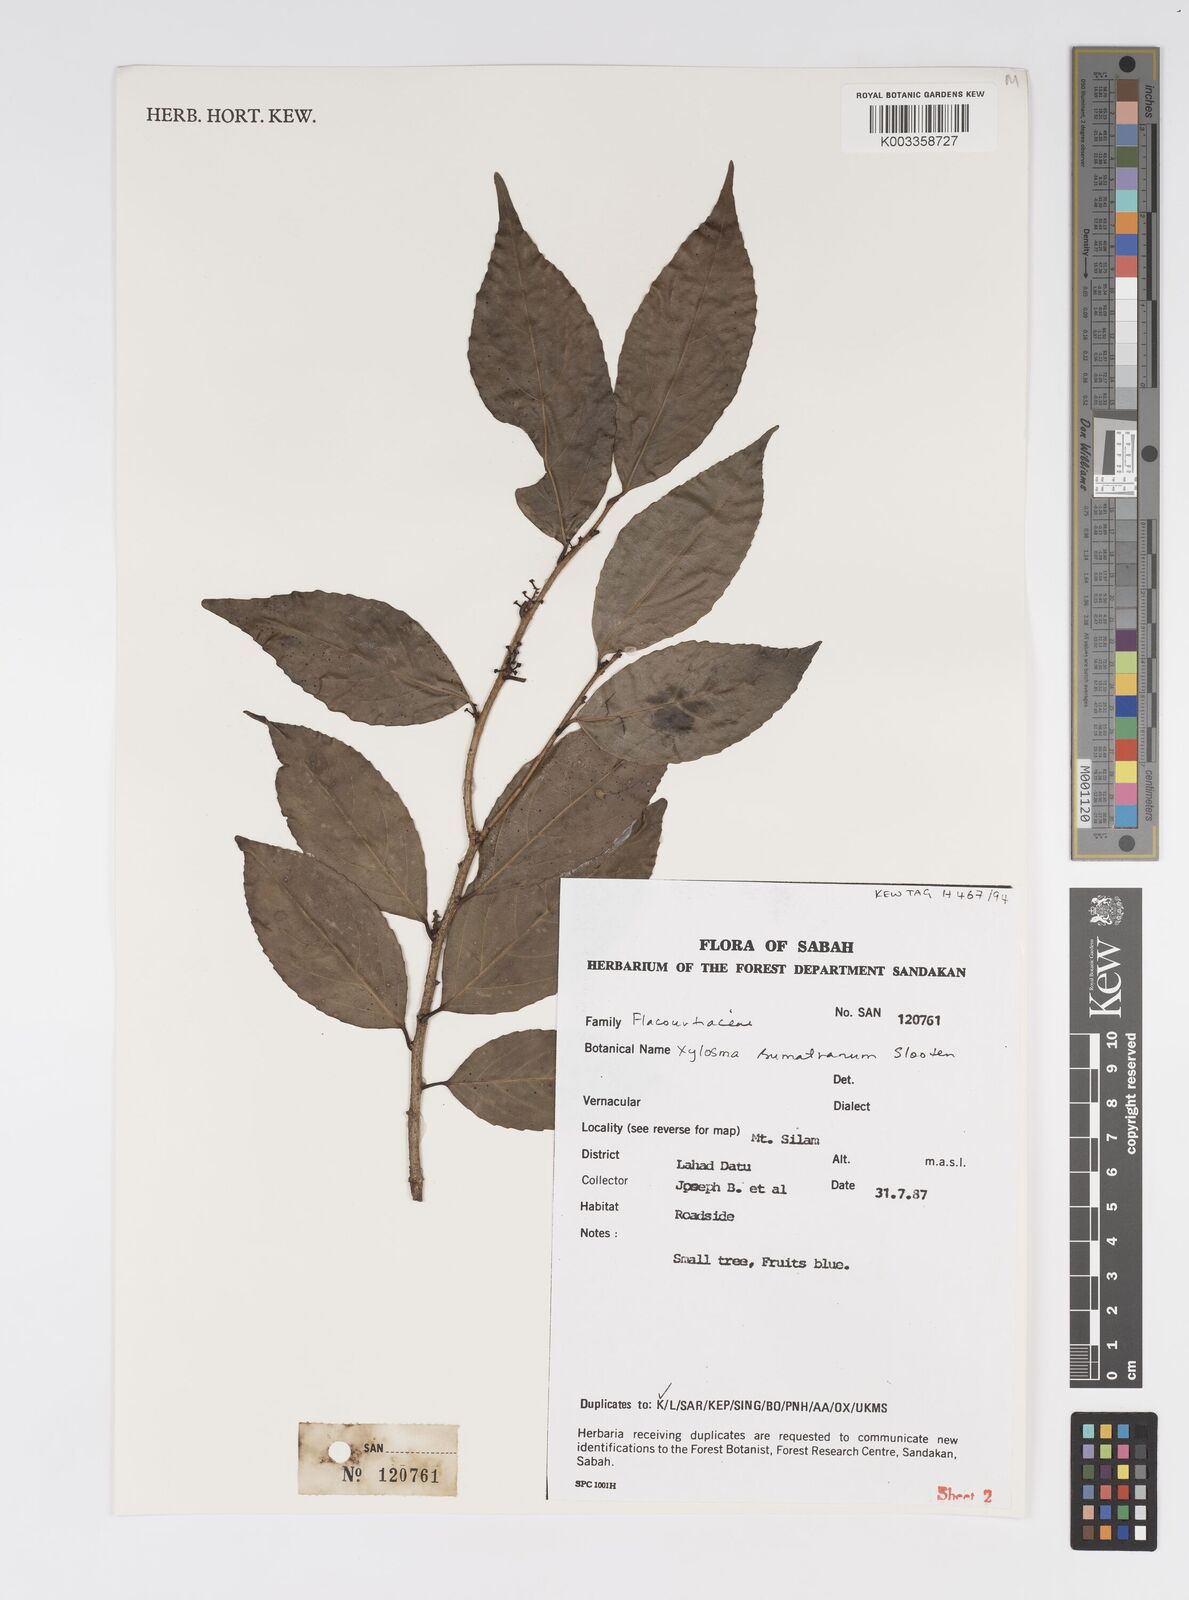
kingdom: Plantae
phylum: Tracheophyta
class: Magnoliopsida
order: Malpighiales
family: Salicaceae
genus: Xylosma
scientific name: Xylosma sumatrana
